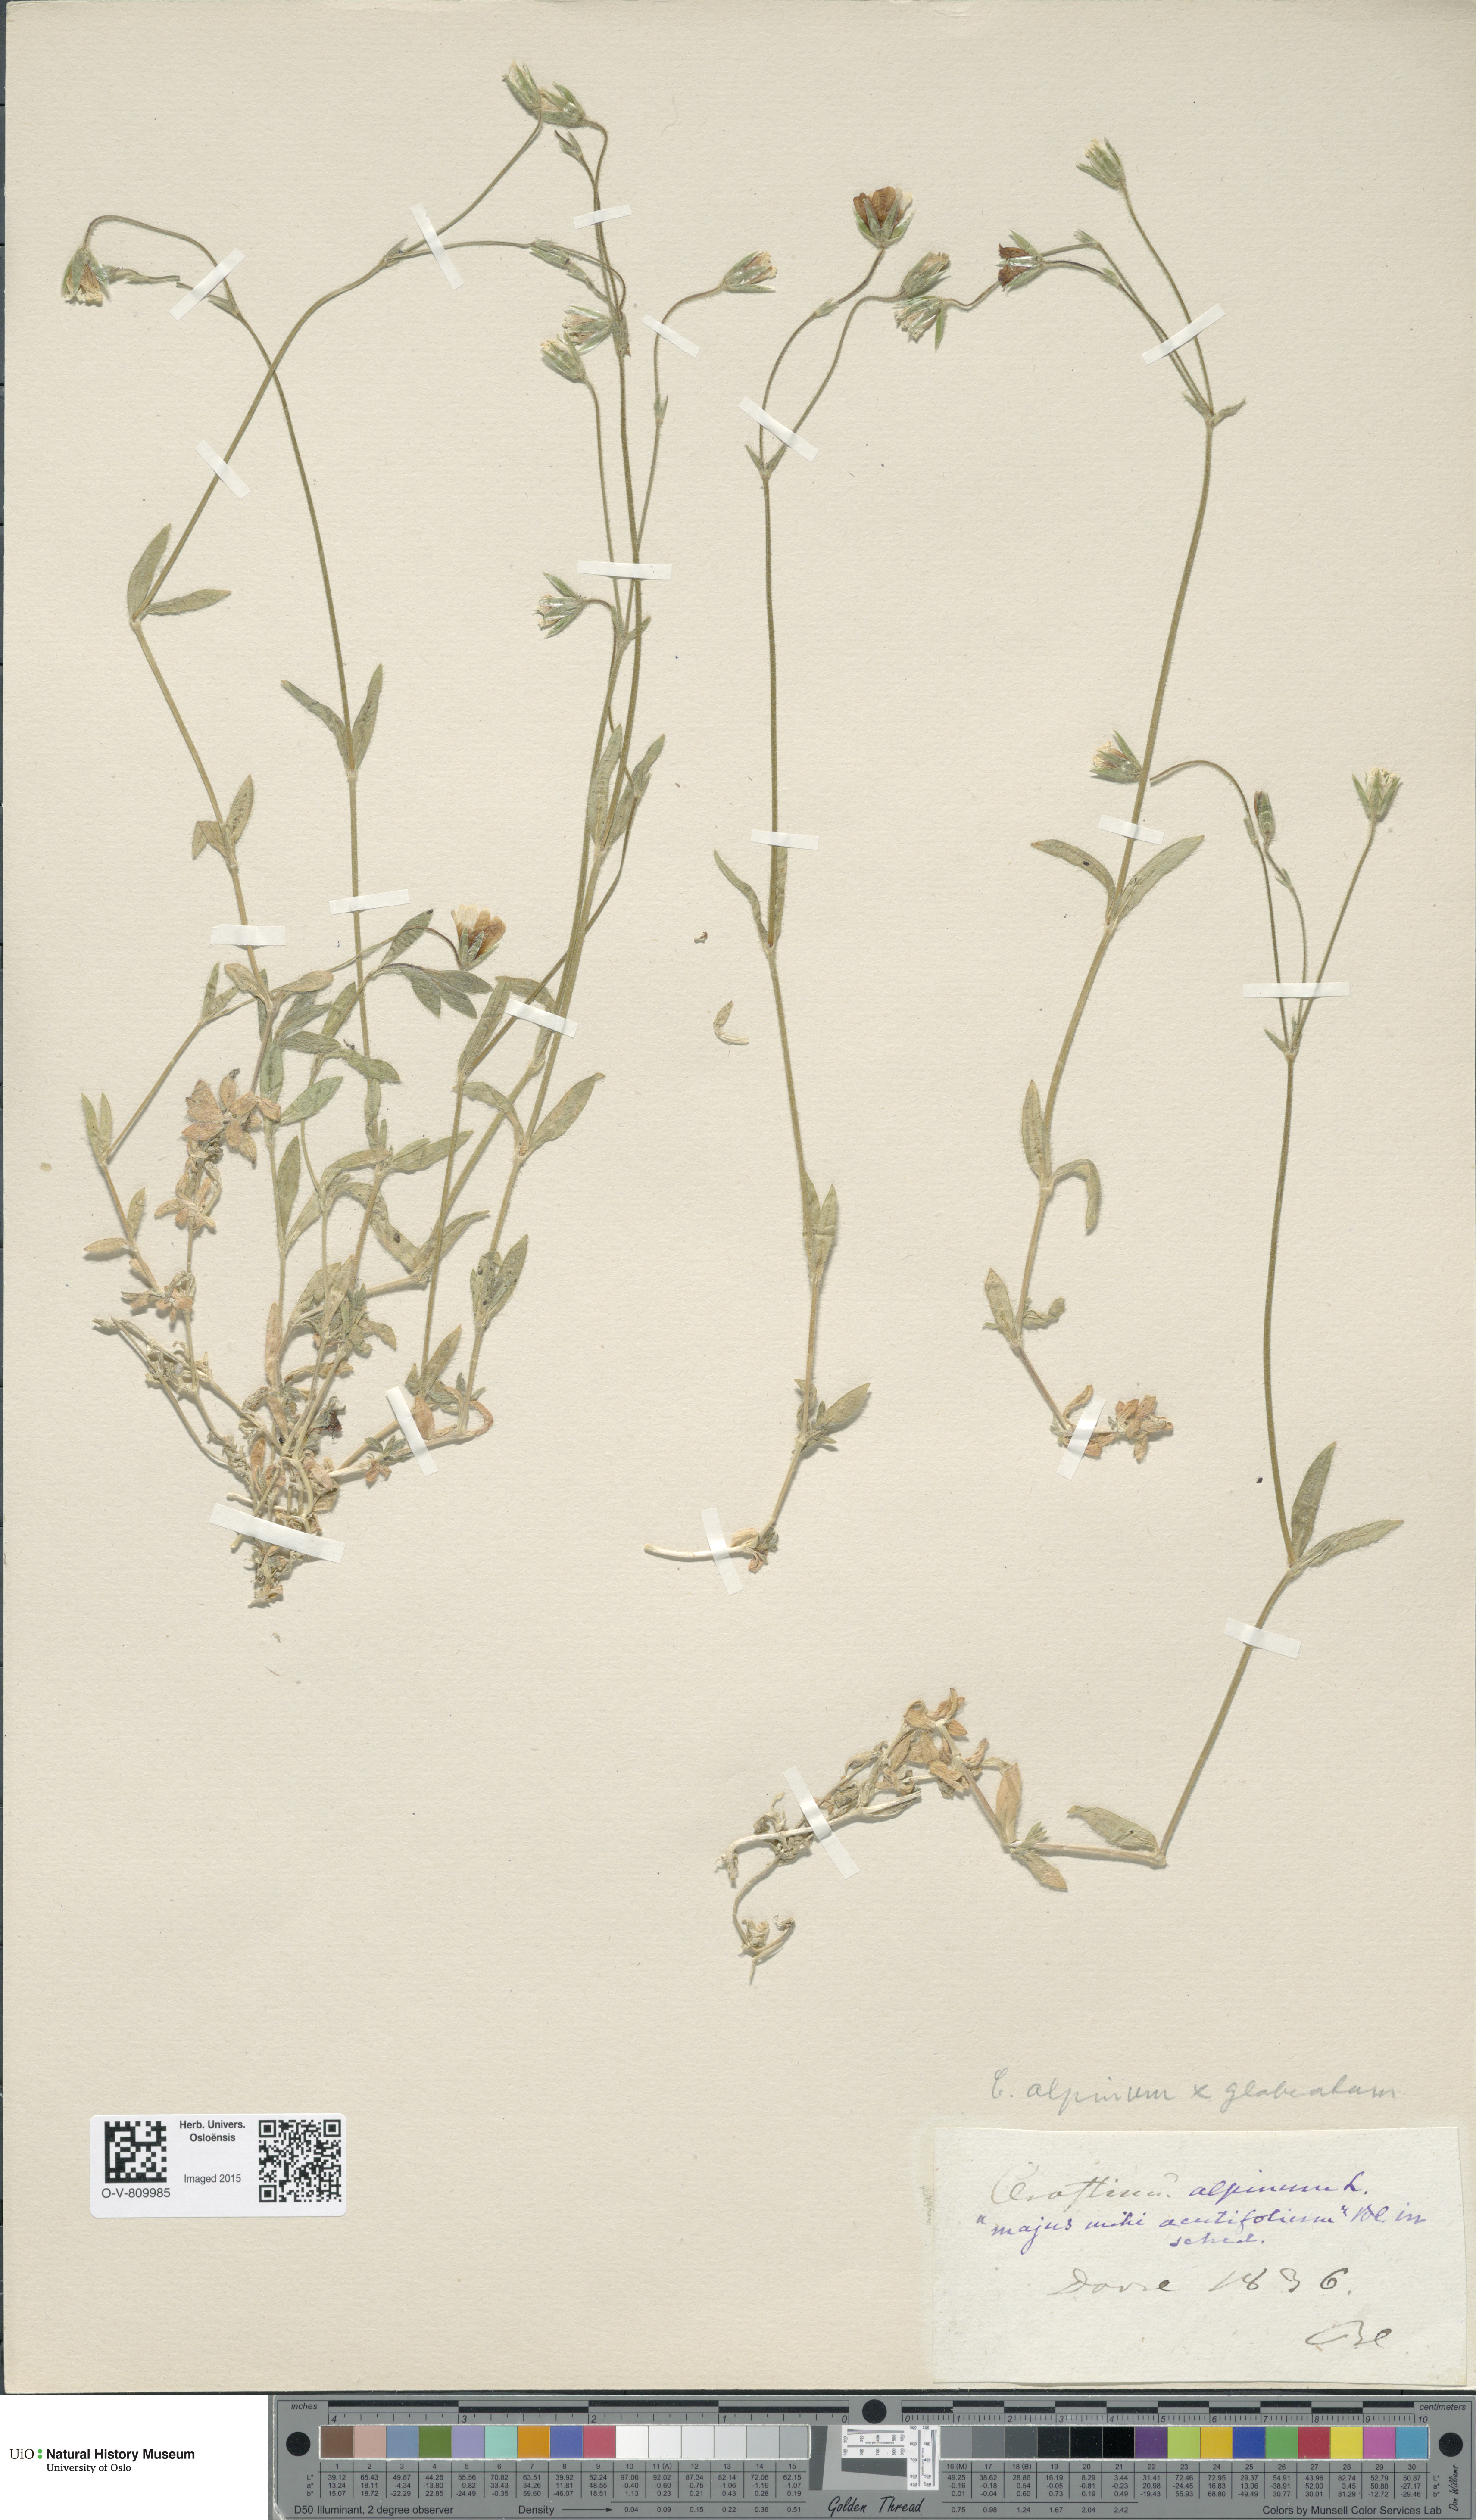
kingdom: Plantae
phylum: Tracheophyta
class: Magnoliopsida
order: Caryophyllales
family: Caryophyllaceae
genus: Cerastium
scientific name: Cerastium
